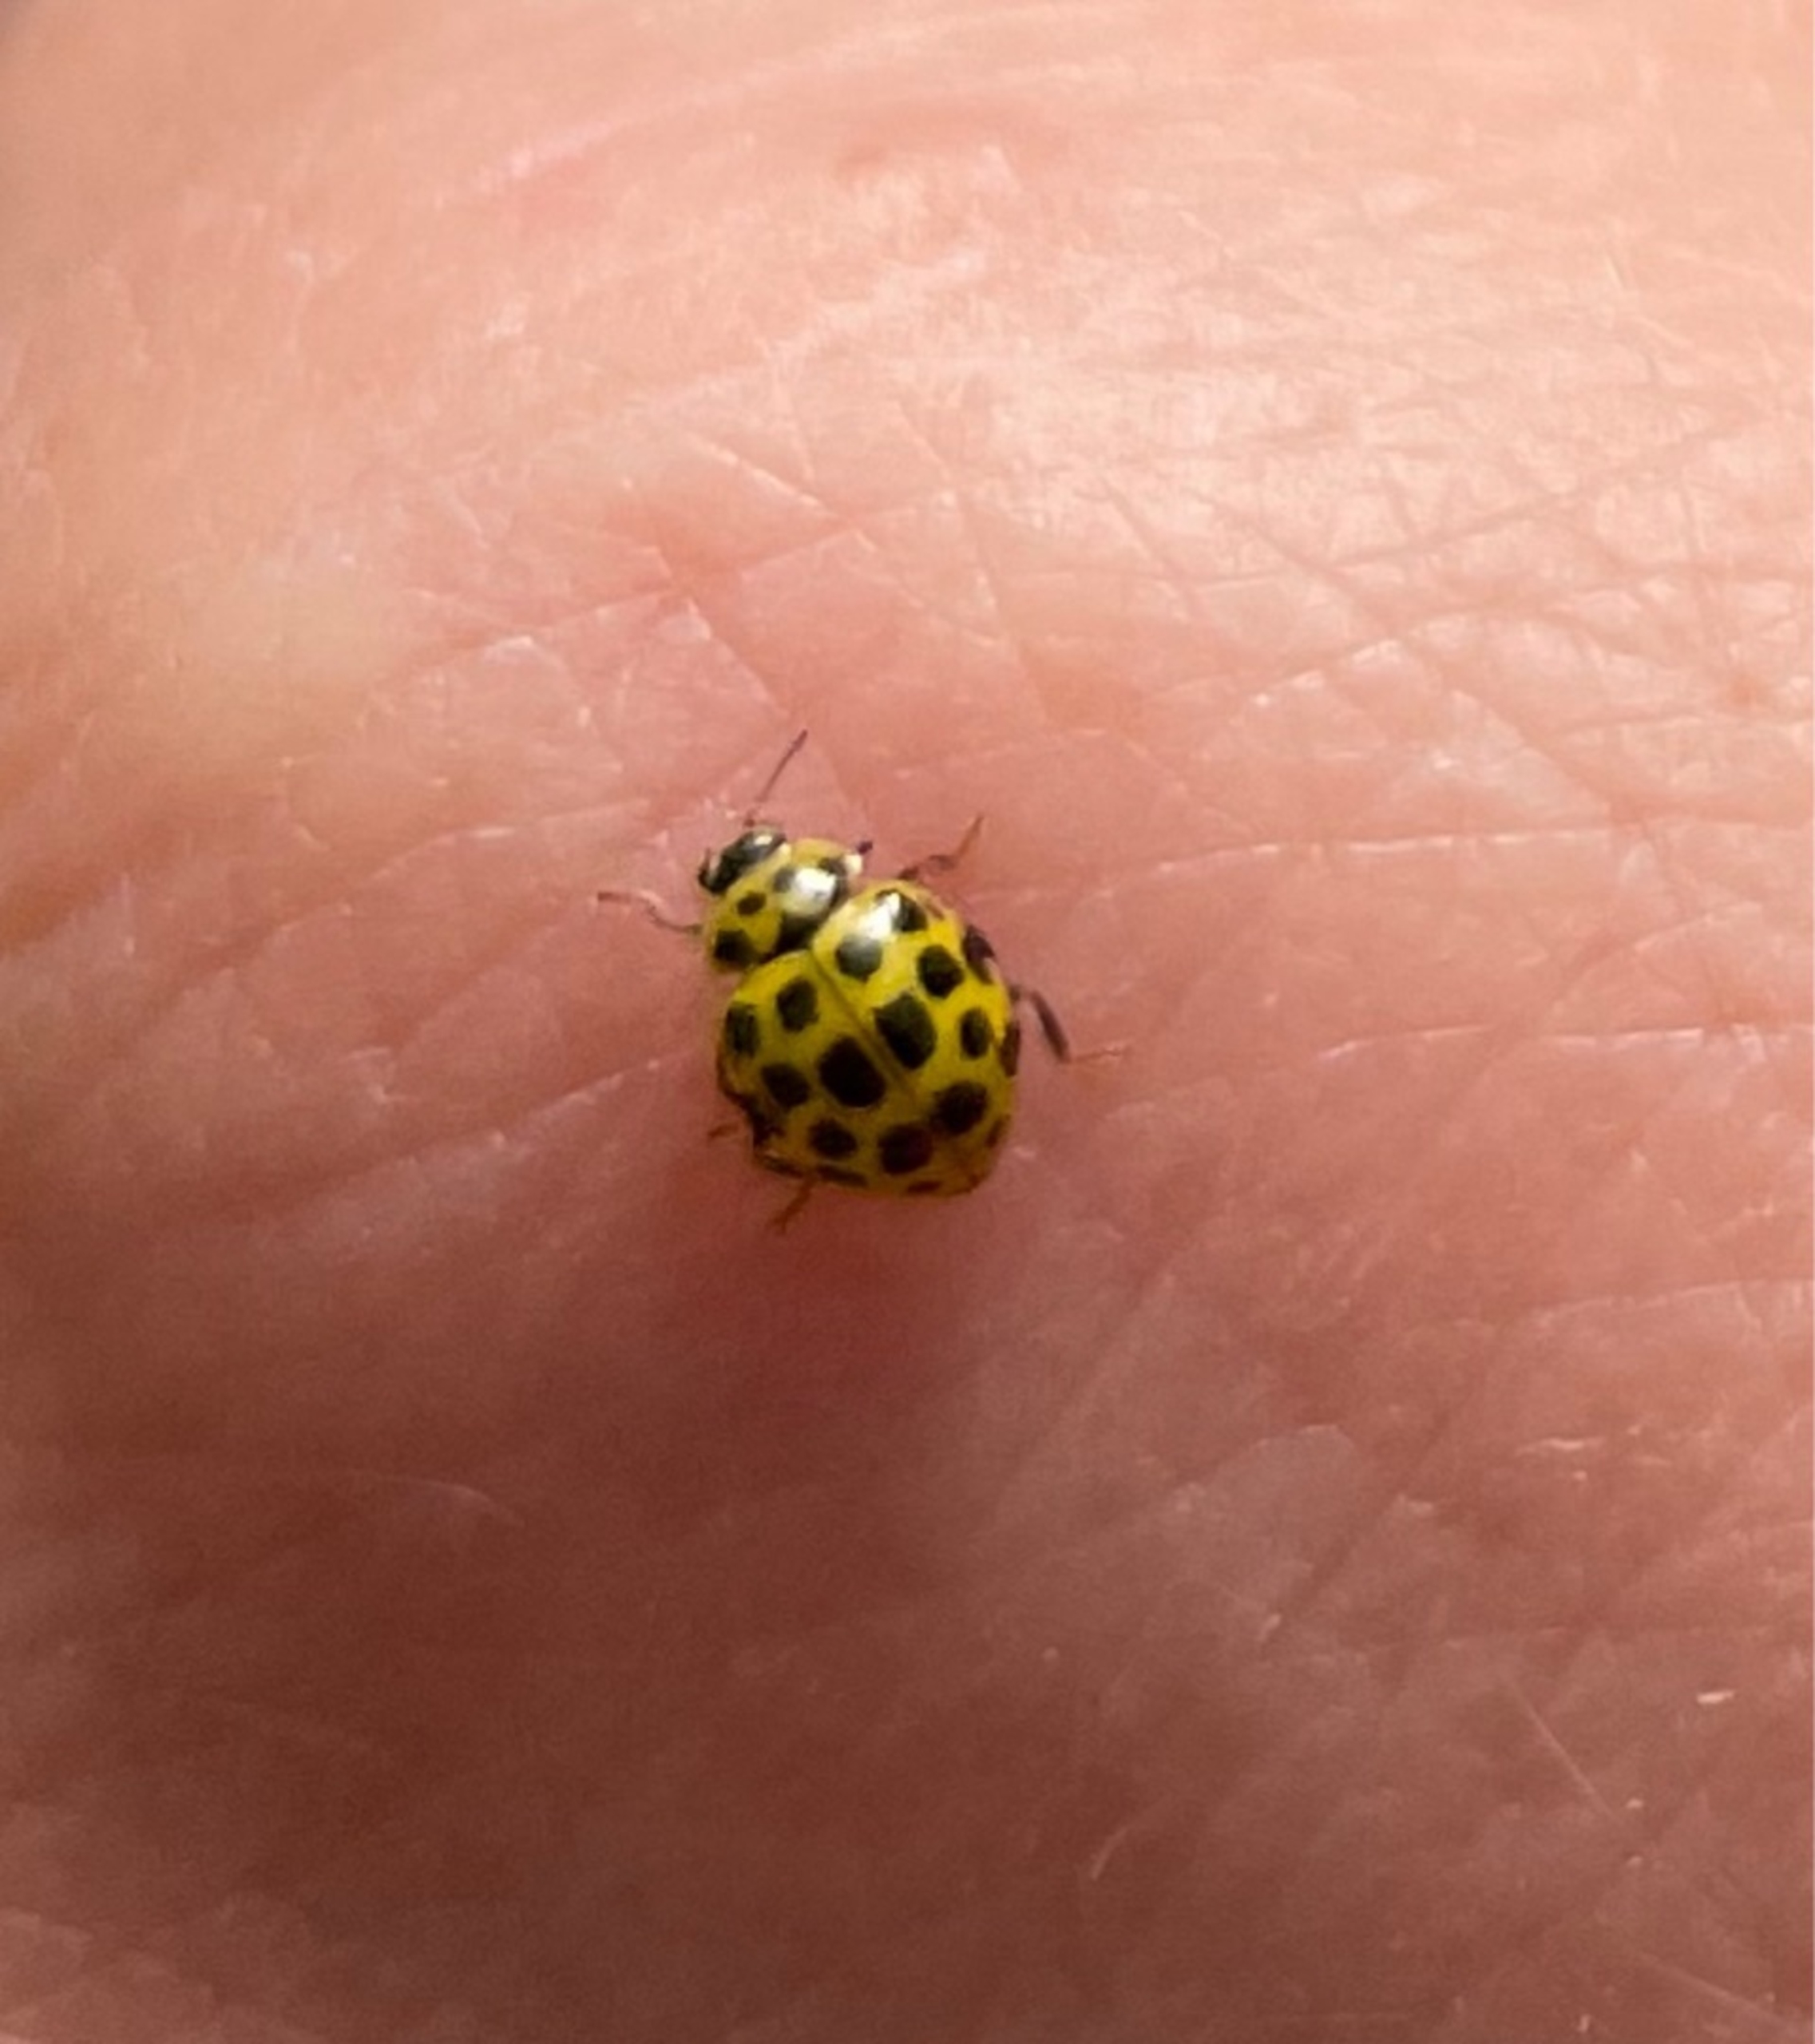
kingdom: Animalia
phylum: Arthropoda
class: Insecta
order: Coleoptera
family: Coccinellidae
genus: Psyllobora
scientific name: Psyllobora vigintiduopunctata
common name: Toogtyveplettet mariehøne
